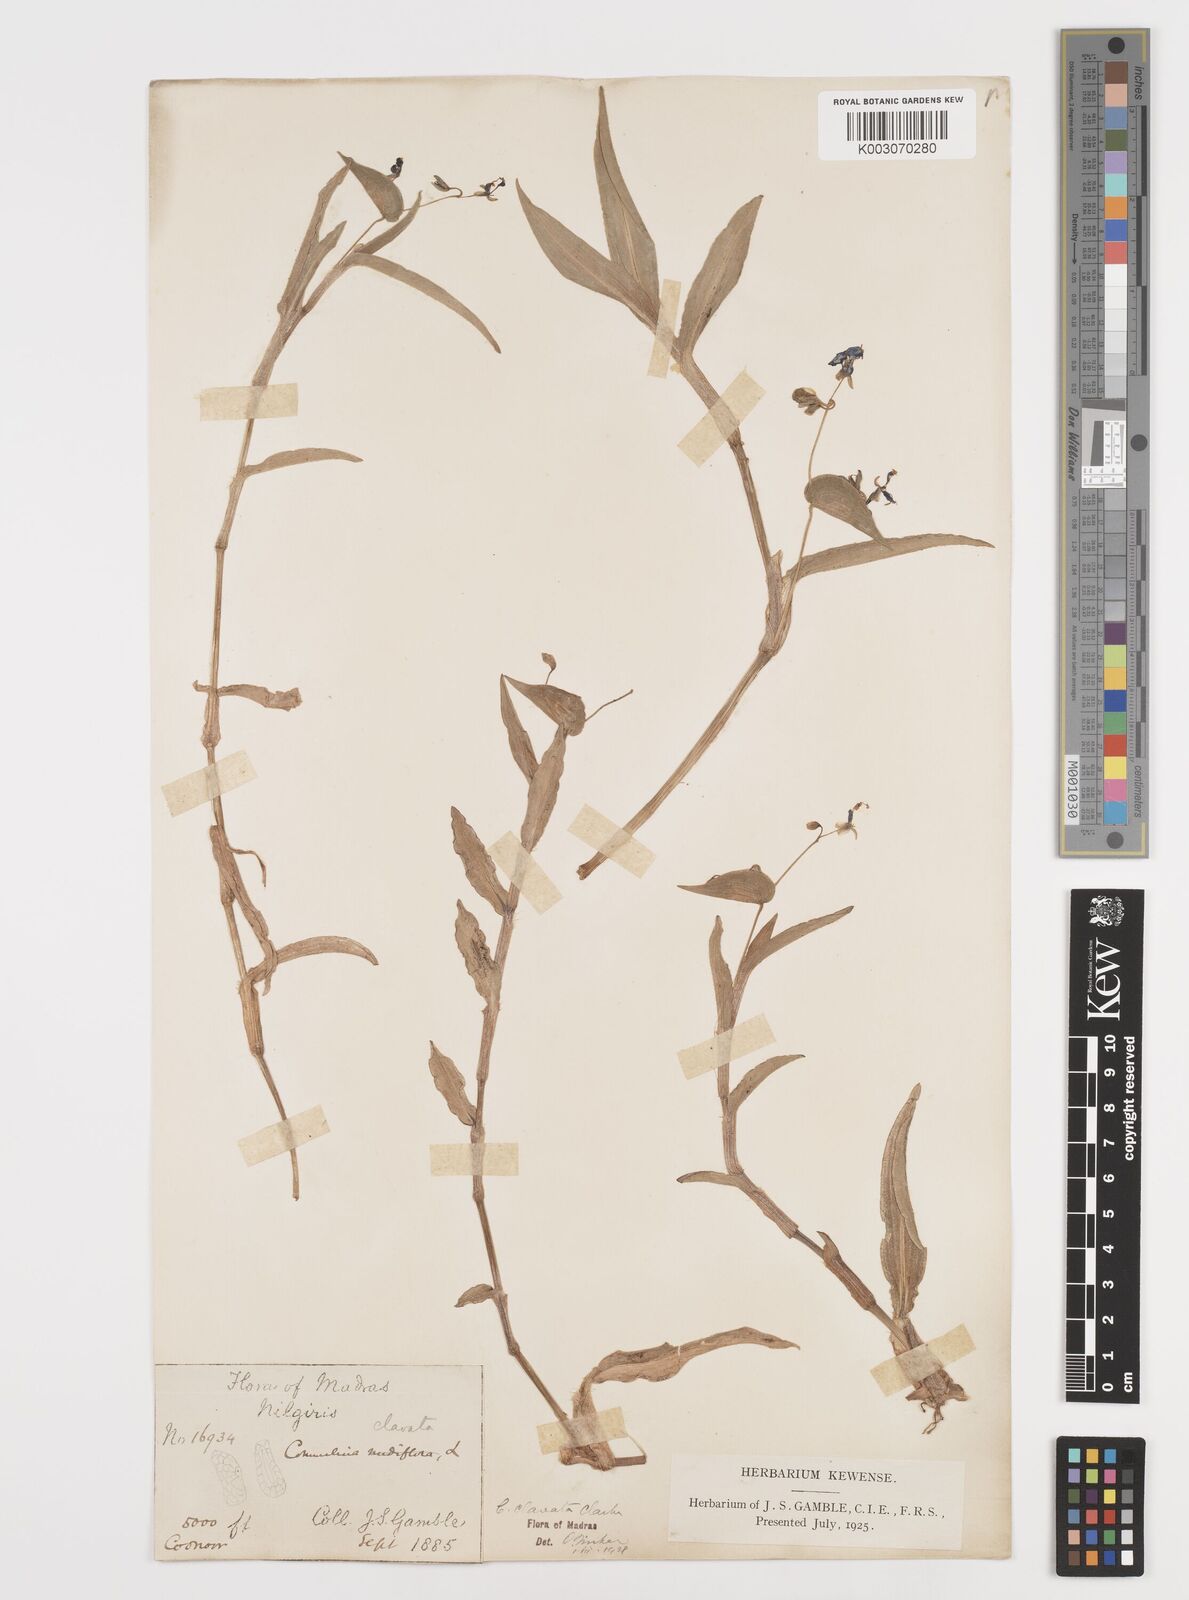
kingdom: Plantae
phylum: Tracheophyta
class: Liliopsida
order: Commelinales
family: Commelinaceae
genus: Commelina
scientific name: Commelina clavata
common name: Willow leaved dayflower
